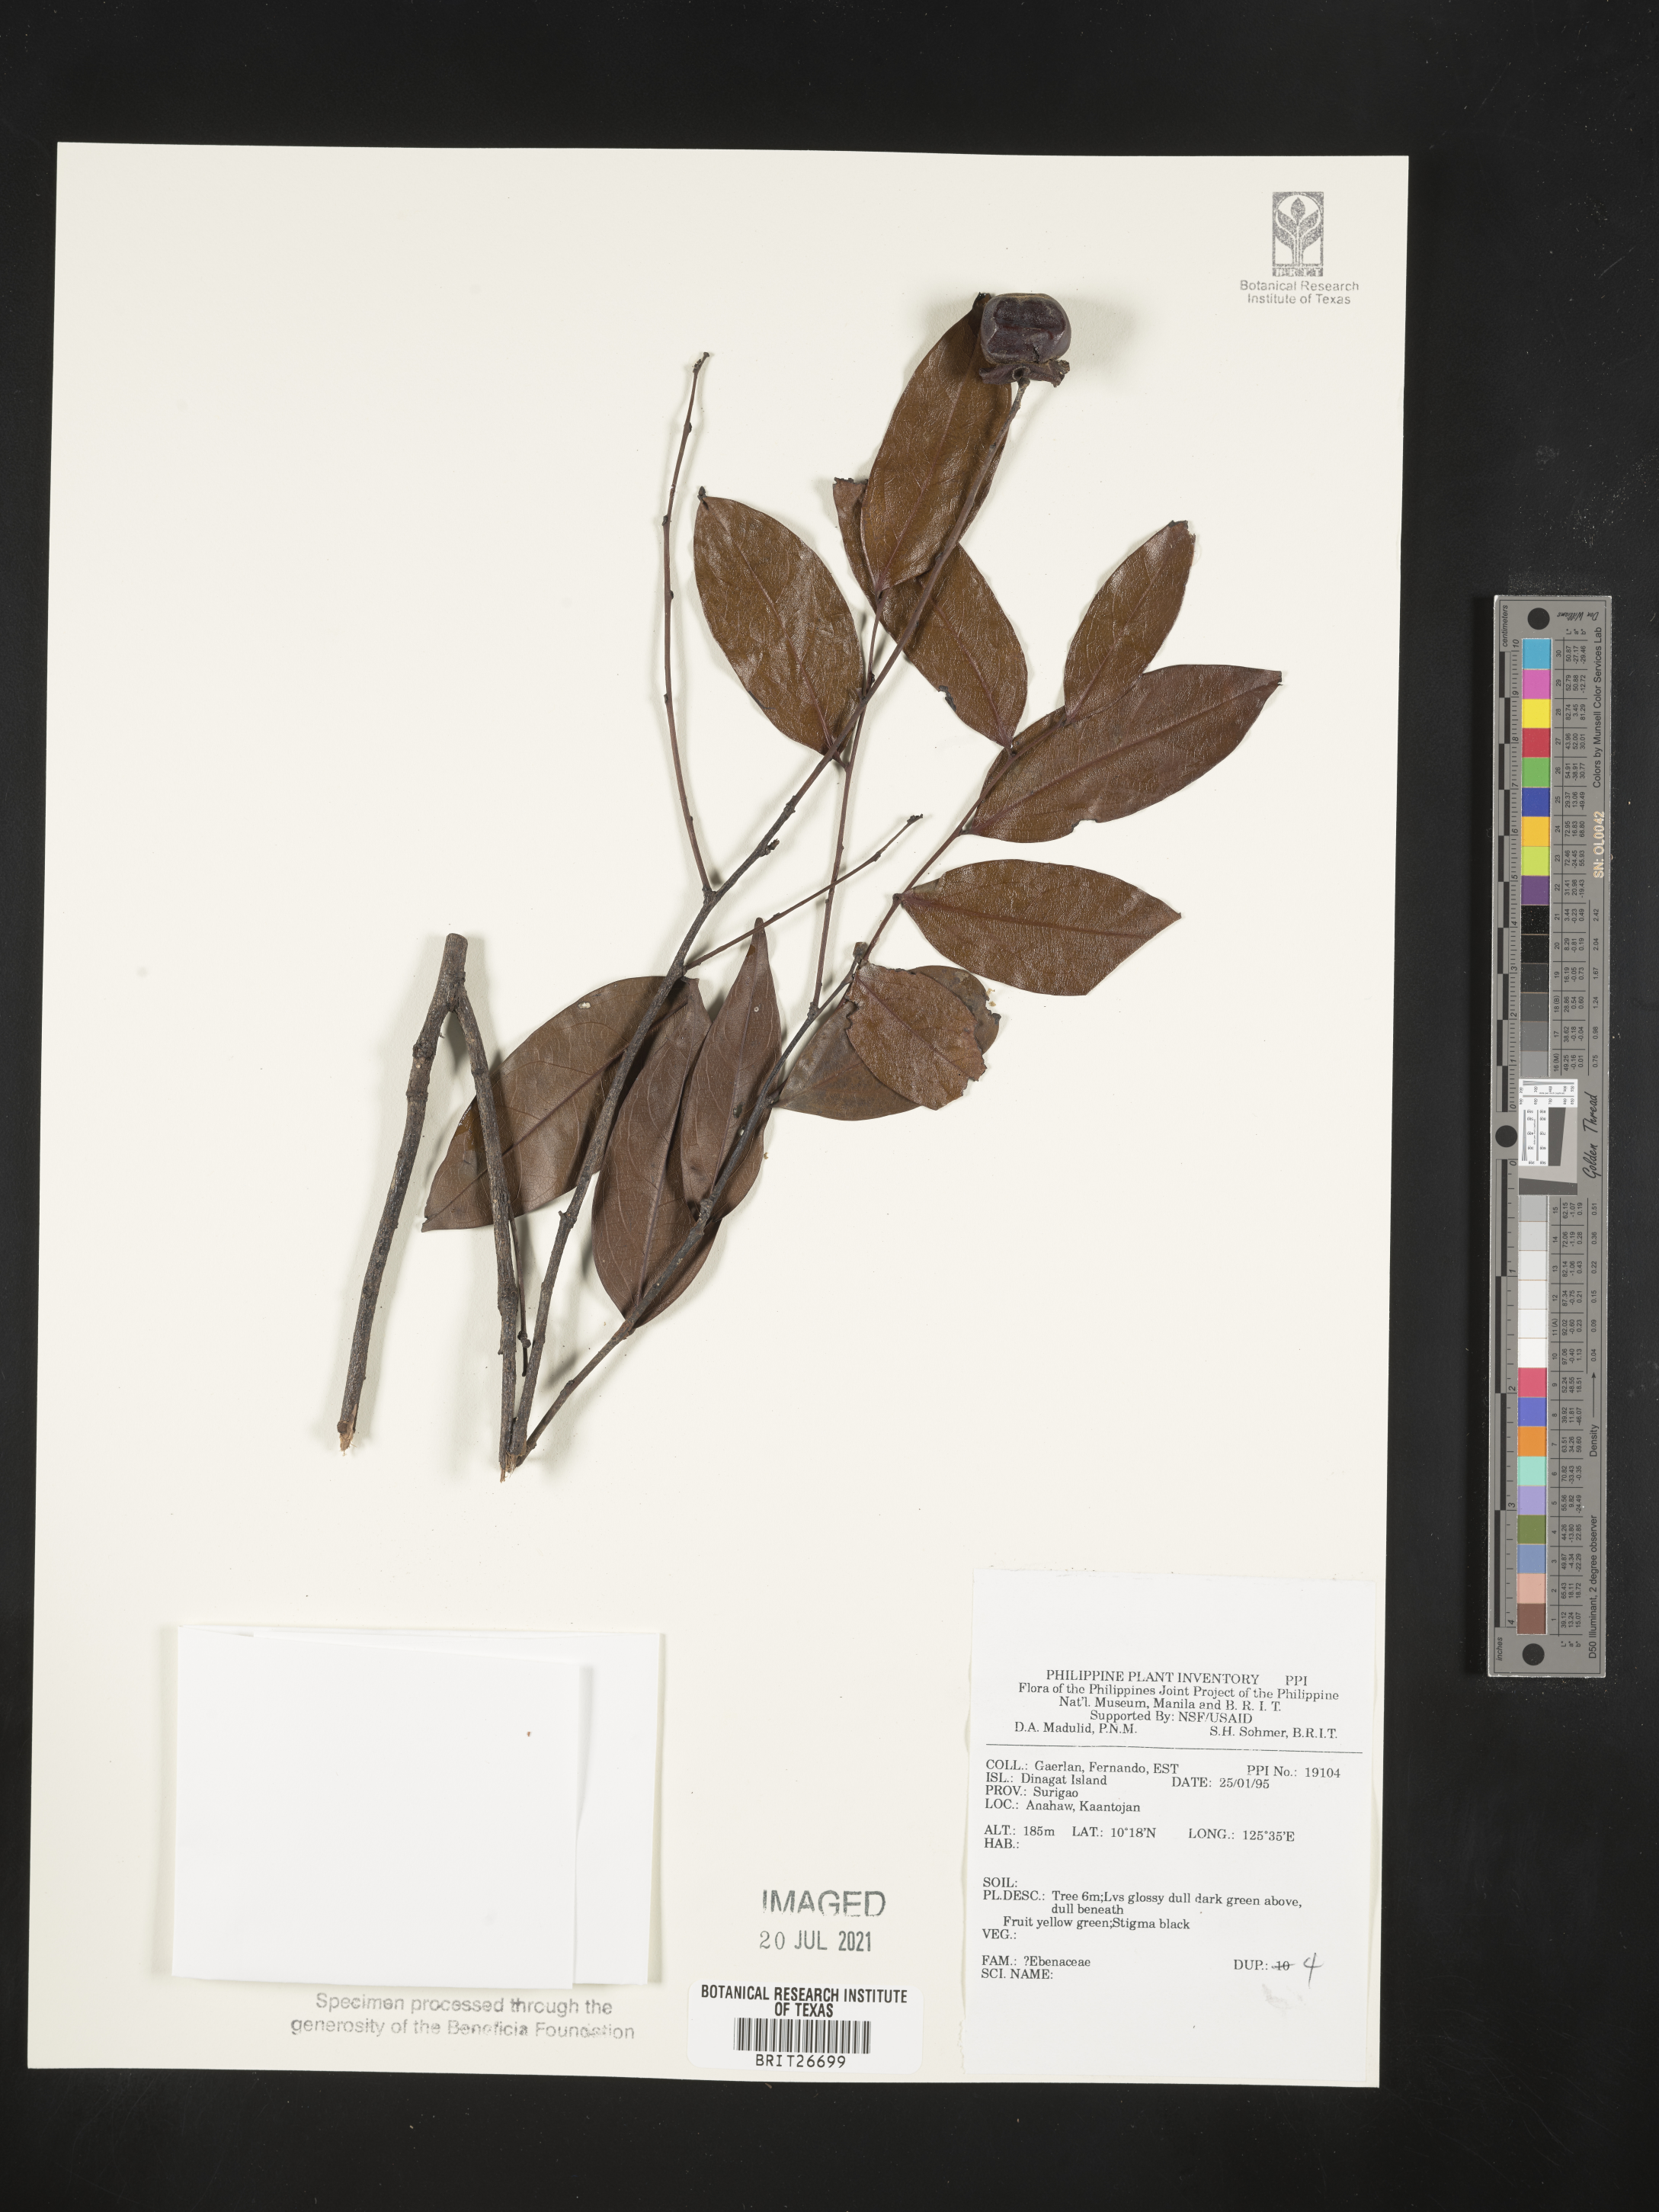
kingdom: Plantae
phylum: Tracheophyta
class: Magnoliopsida
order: Ericales
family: Ebenaceae
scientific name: Ebenaceae
